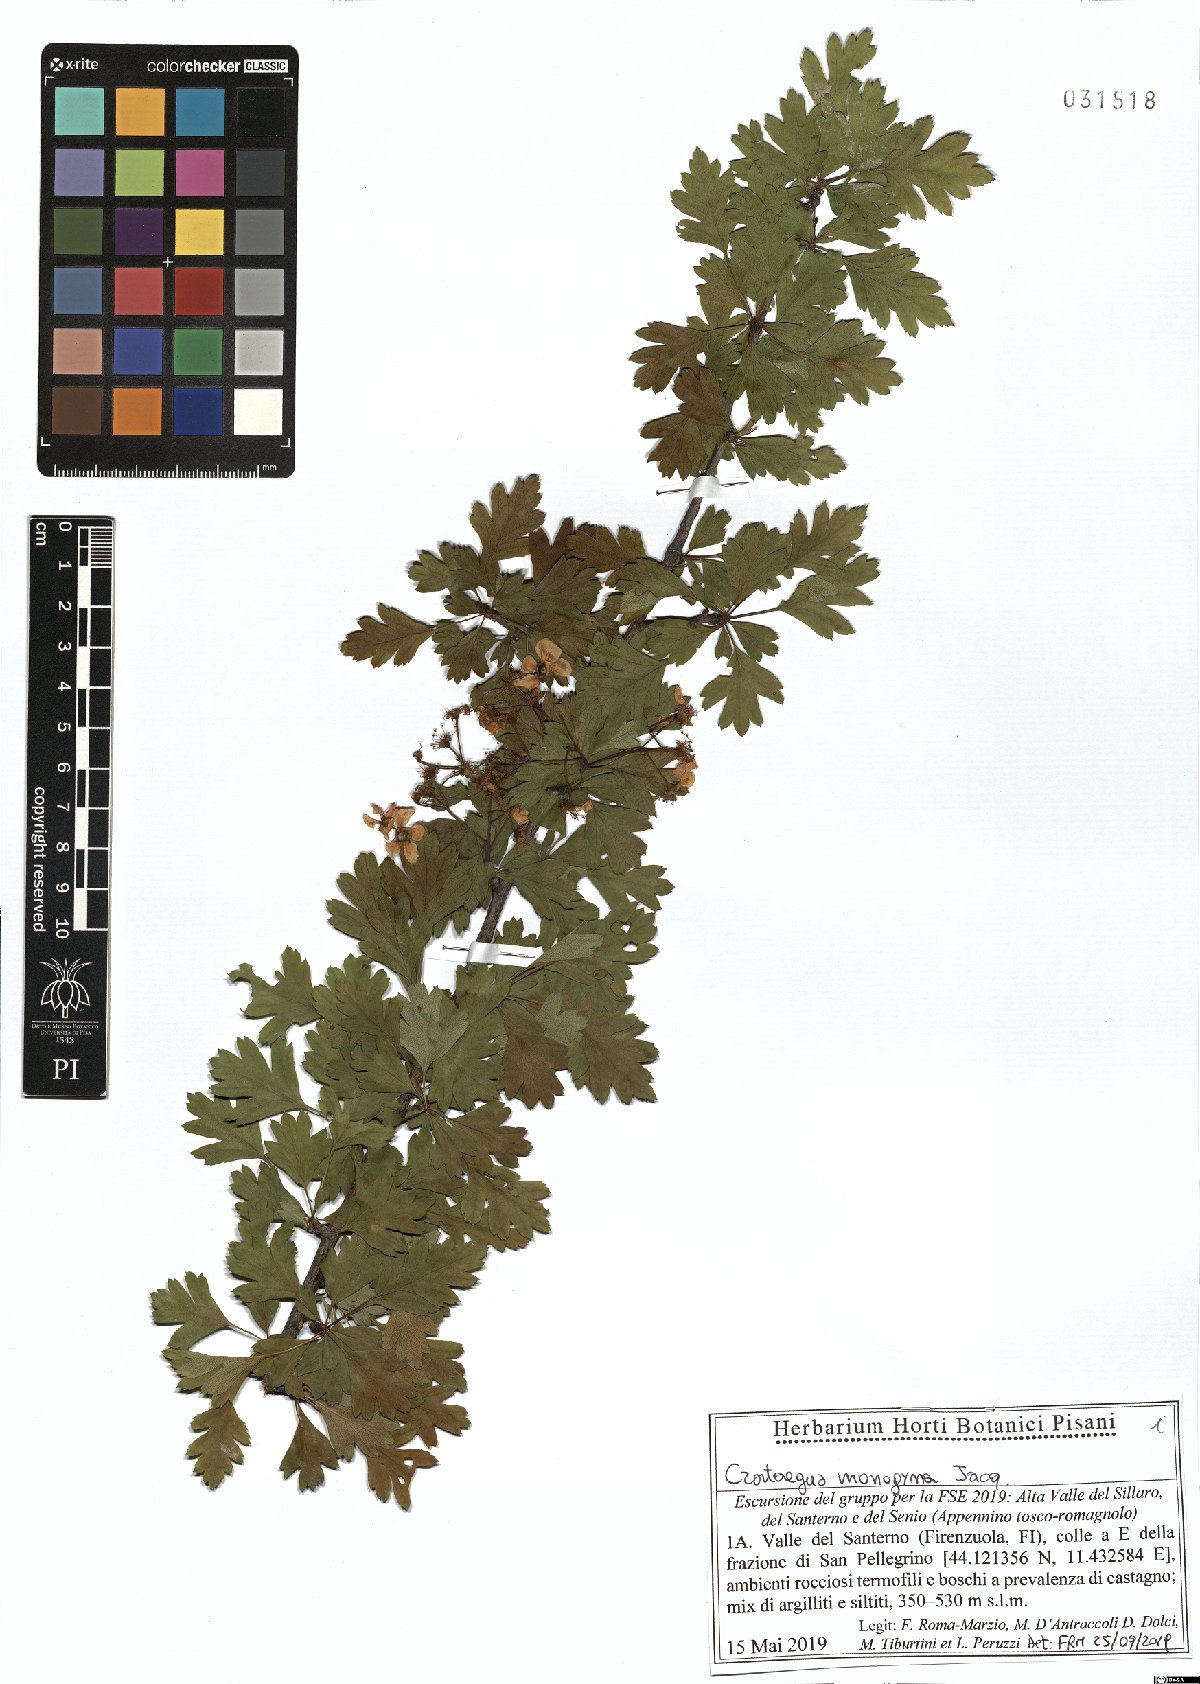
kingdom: Plantae
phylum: Tracheophyta
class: Magnoliopsida
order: Rosales
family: Rosaceae
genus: Crataegus
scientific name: Crataegus monogyna
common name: Hawthorn
